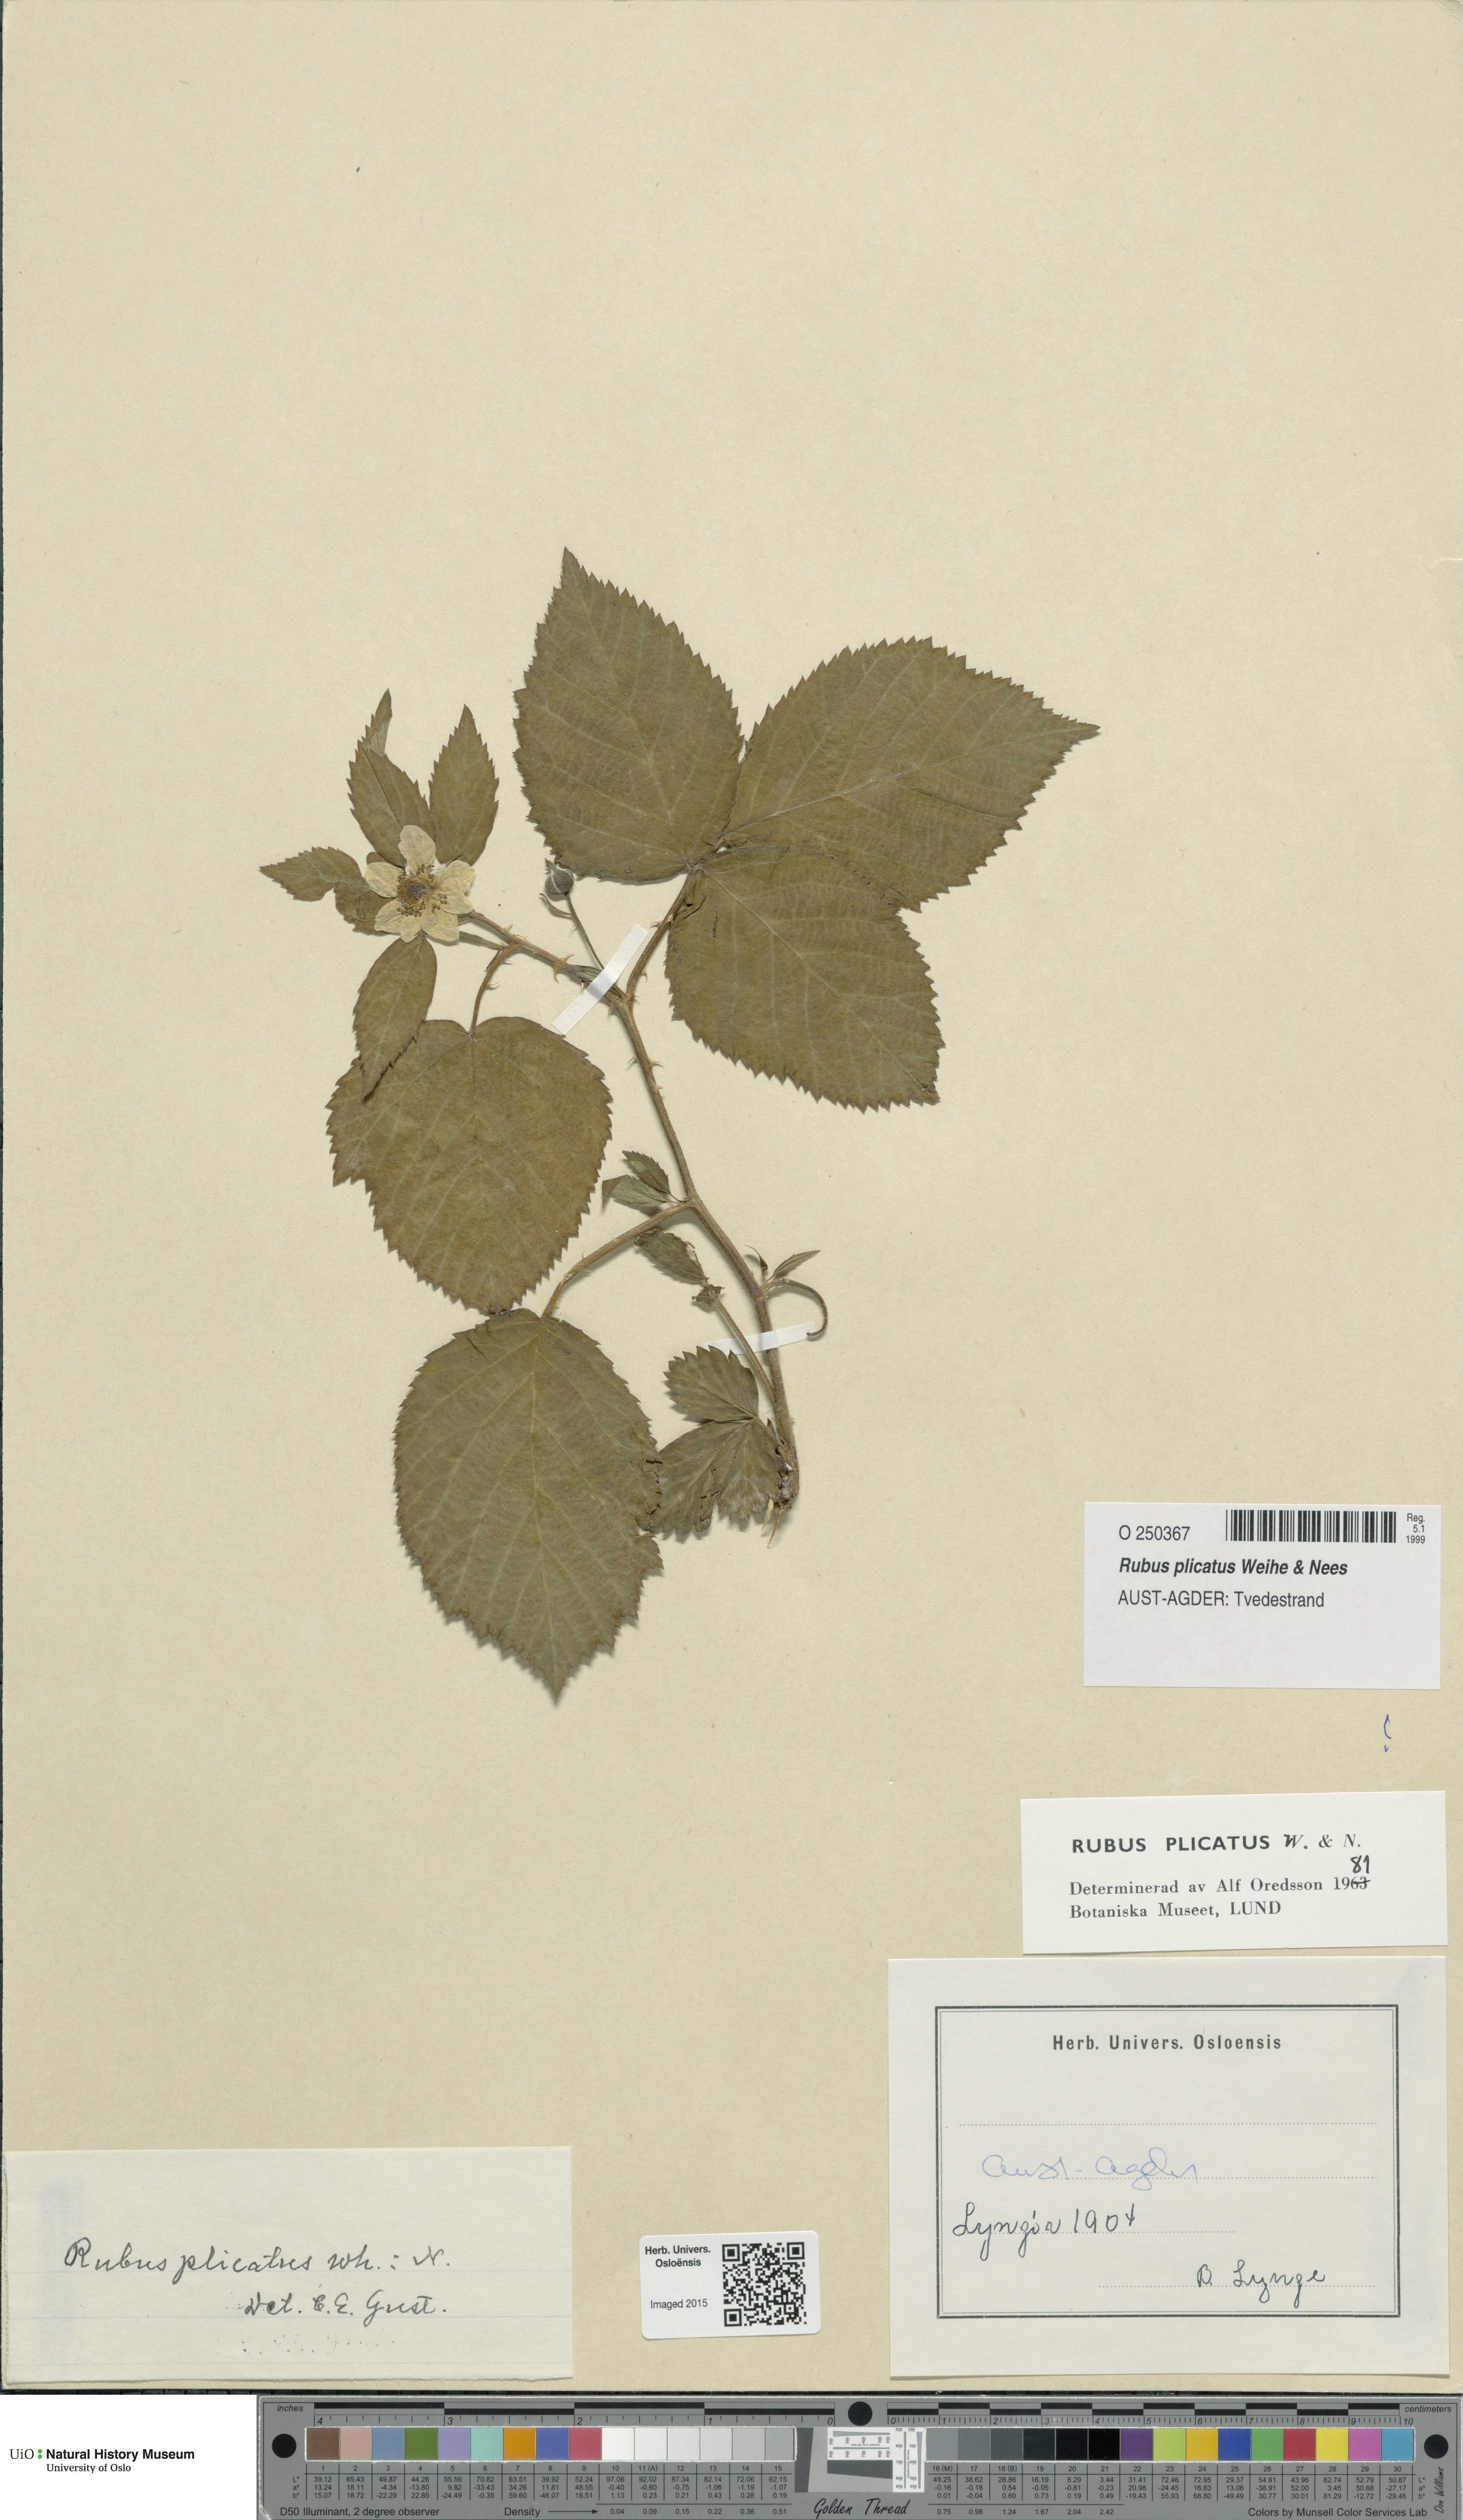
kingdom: Plantae
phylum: Tracheophyta
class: Magnoliopsida
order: Rosales
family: Rosaceae
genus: Rubus
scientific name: Rubus fruticosus
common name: Blackberry, bramble
